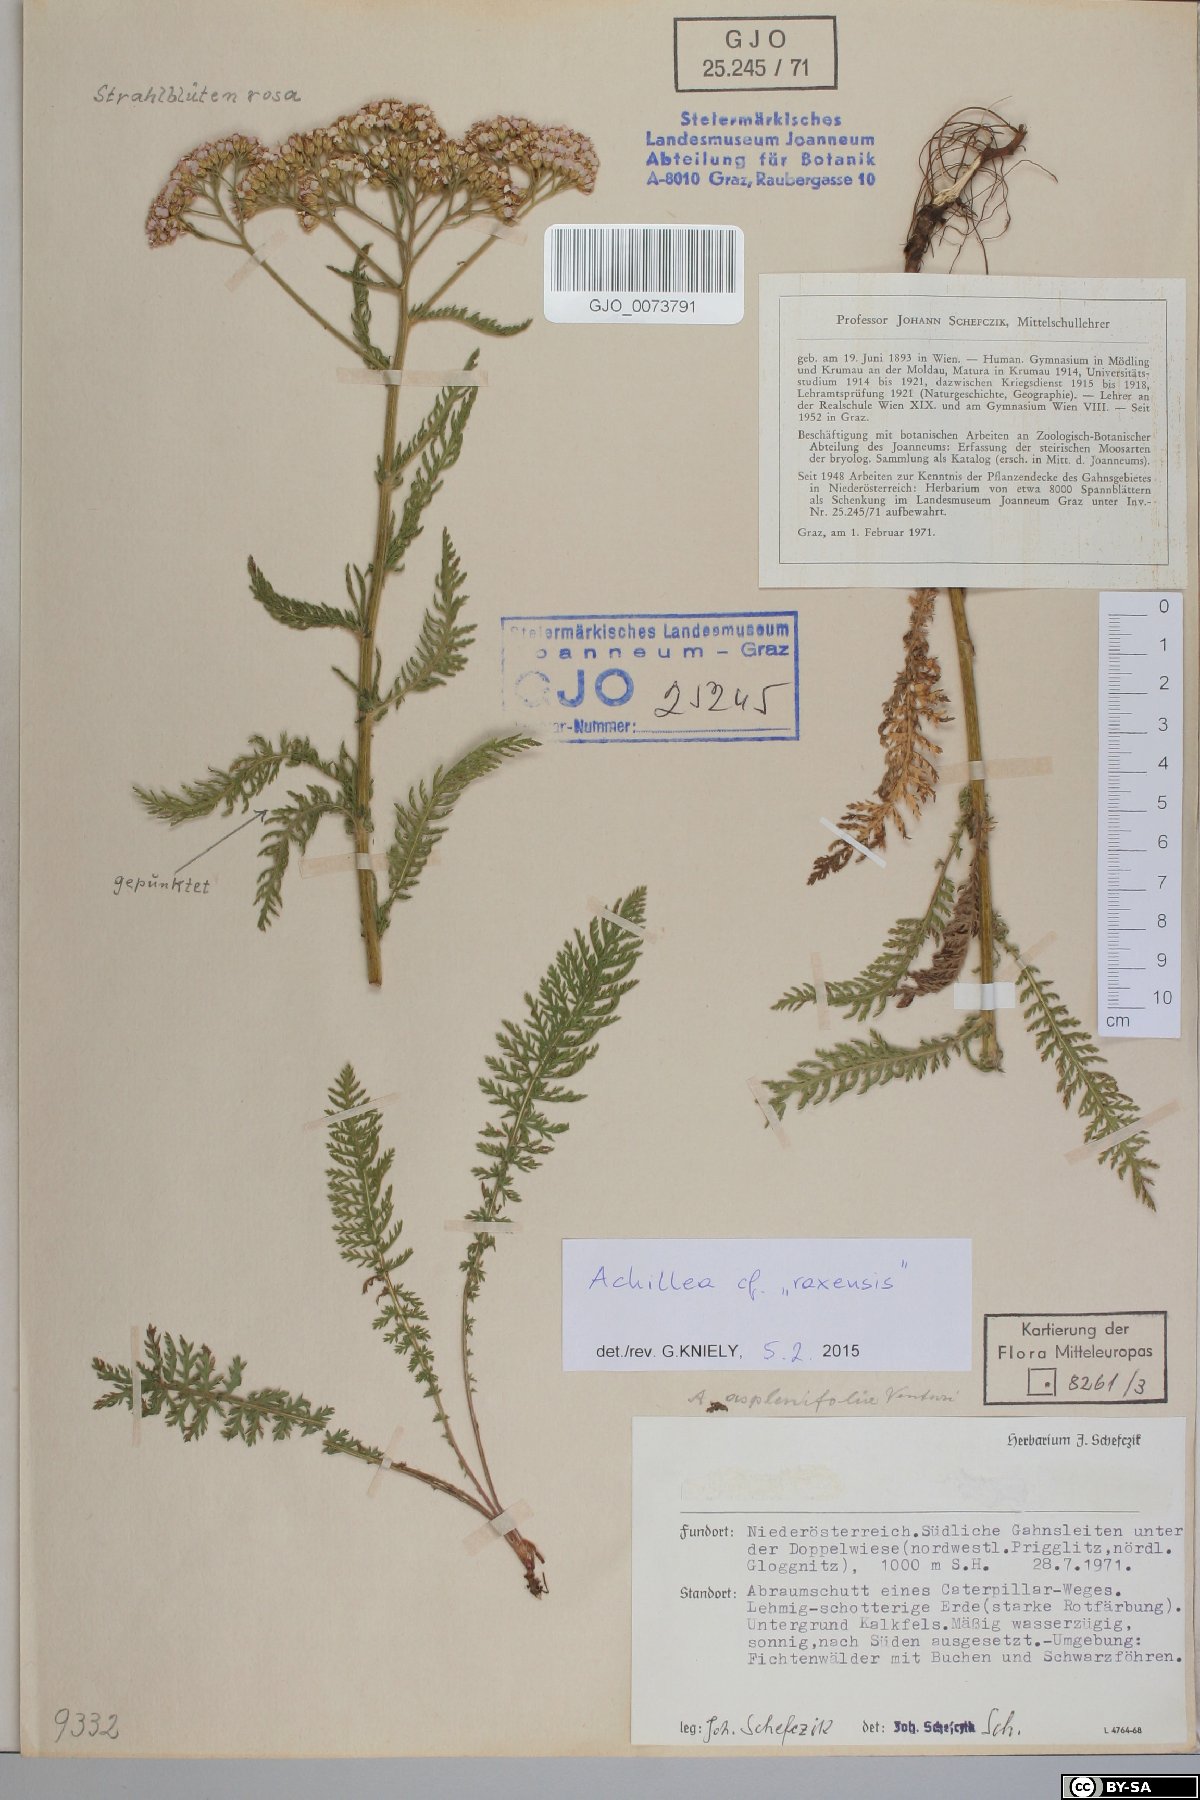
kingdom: Plantae
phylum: Tracheophyta
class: Magnoliopsida
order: Asterales
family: Asteraceae
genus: Achillea
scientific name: Achillea
